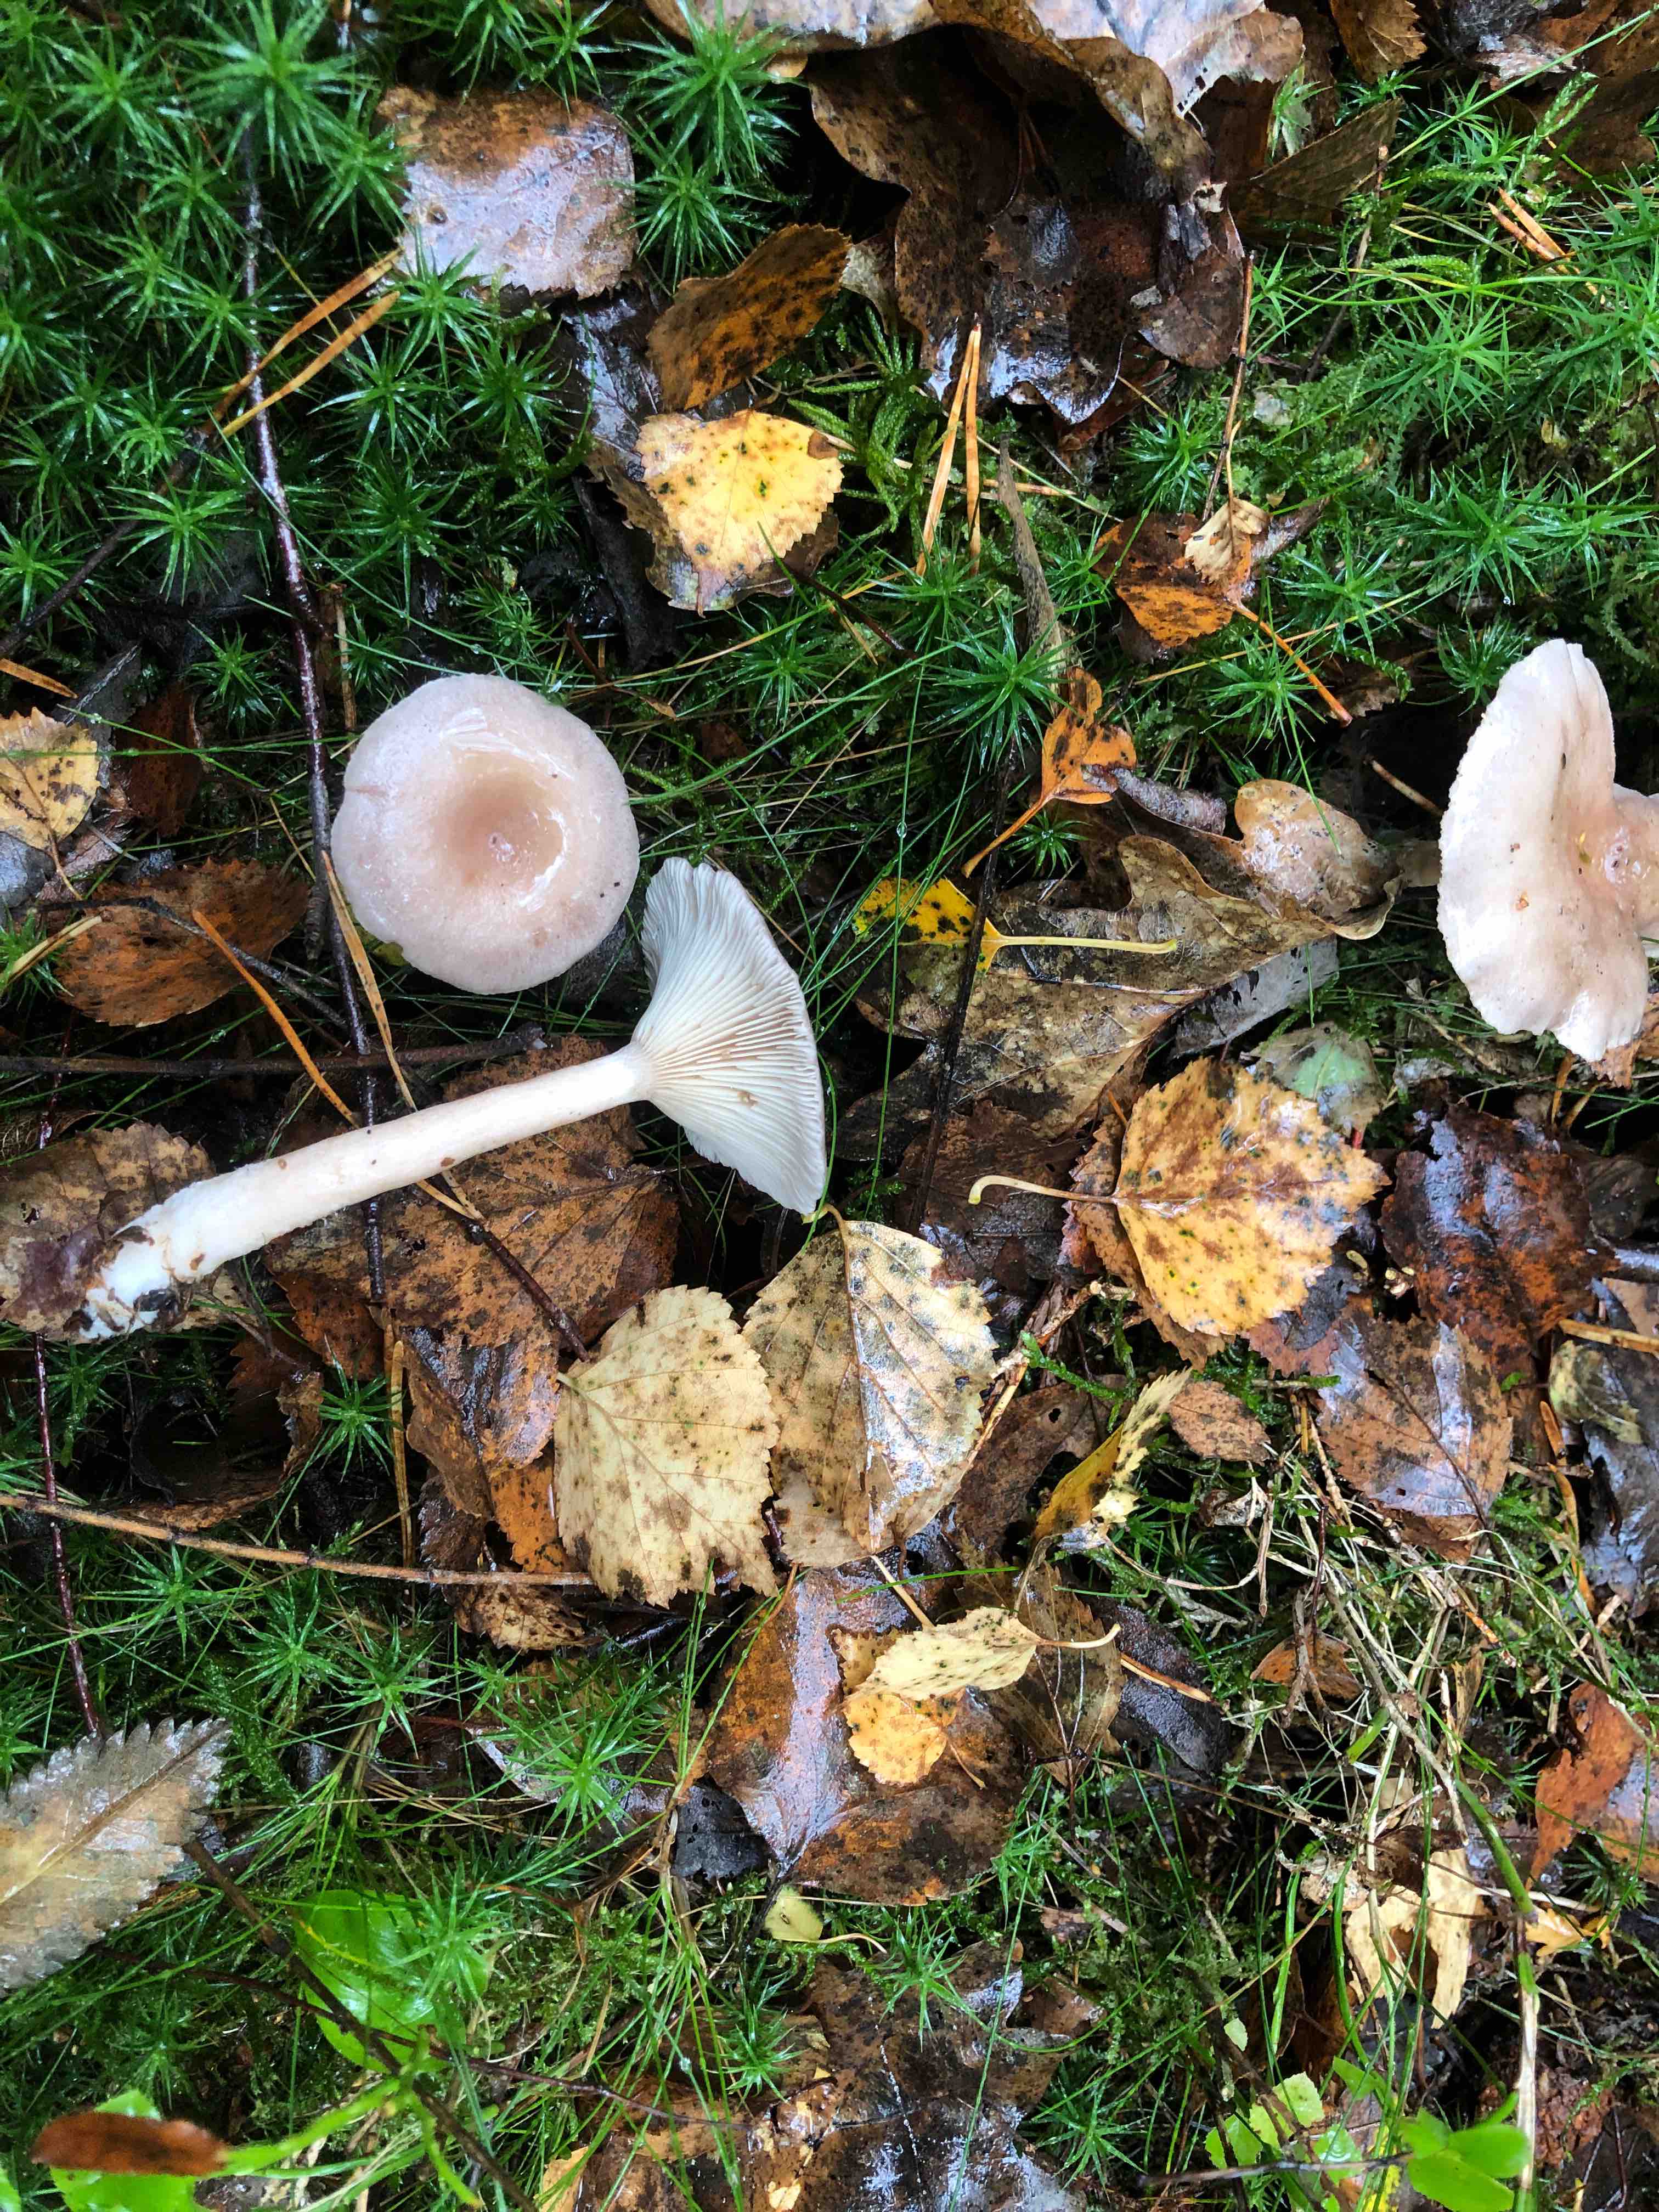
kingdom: Fungi
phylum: Basidiomycota
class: Agaricomycetes
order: Russulales
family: Russulaceae
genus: Lactarius
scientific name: Lactarius vietus
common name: violetgrå mælkehat
